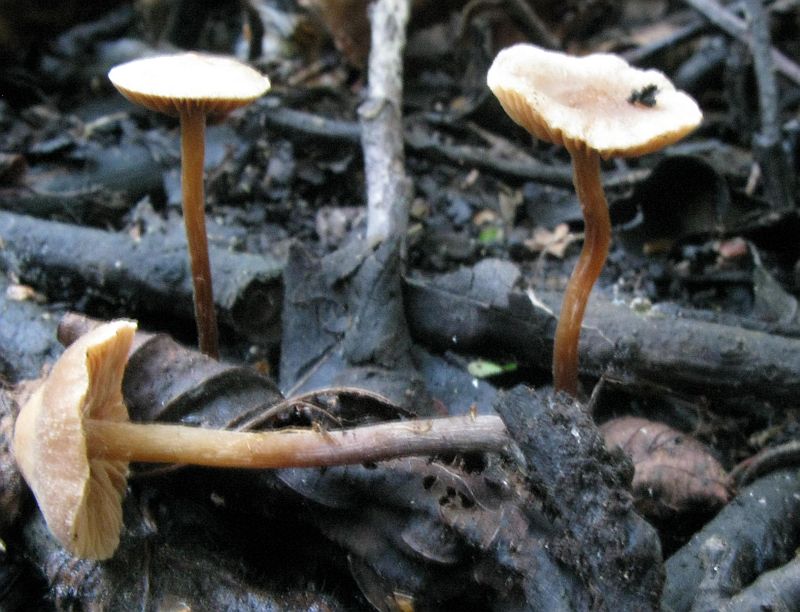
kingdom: Fungi
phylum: Basidiomycota
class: Agaricomycetes
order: Agaricales
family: Hymenogastraceae
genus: Naucoria
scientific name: Naucoria scolecina
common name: mørk elle-knaphat
